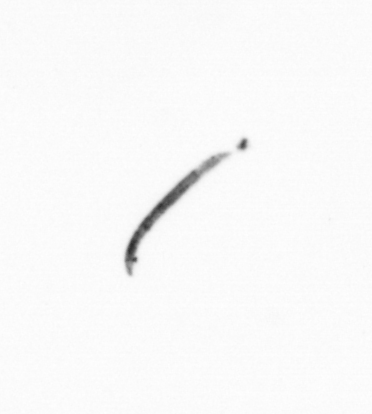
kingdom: Bacteria
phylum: Cyanobacteria
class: Cyanobacteriia
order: Cyanobacteriales
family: Microcoleaceae
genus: Trichodesmium
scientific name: Trichodesmium
